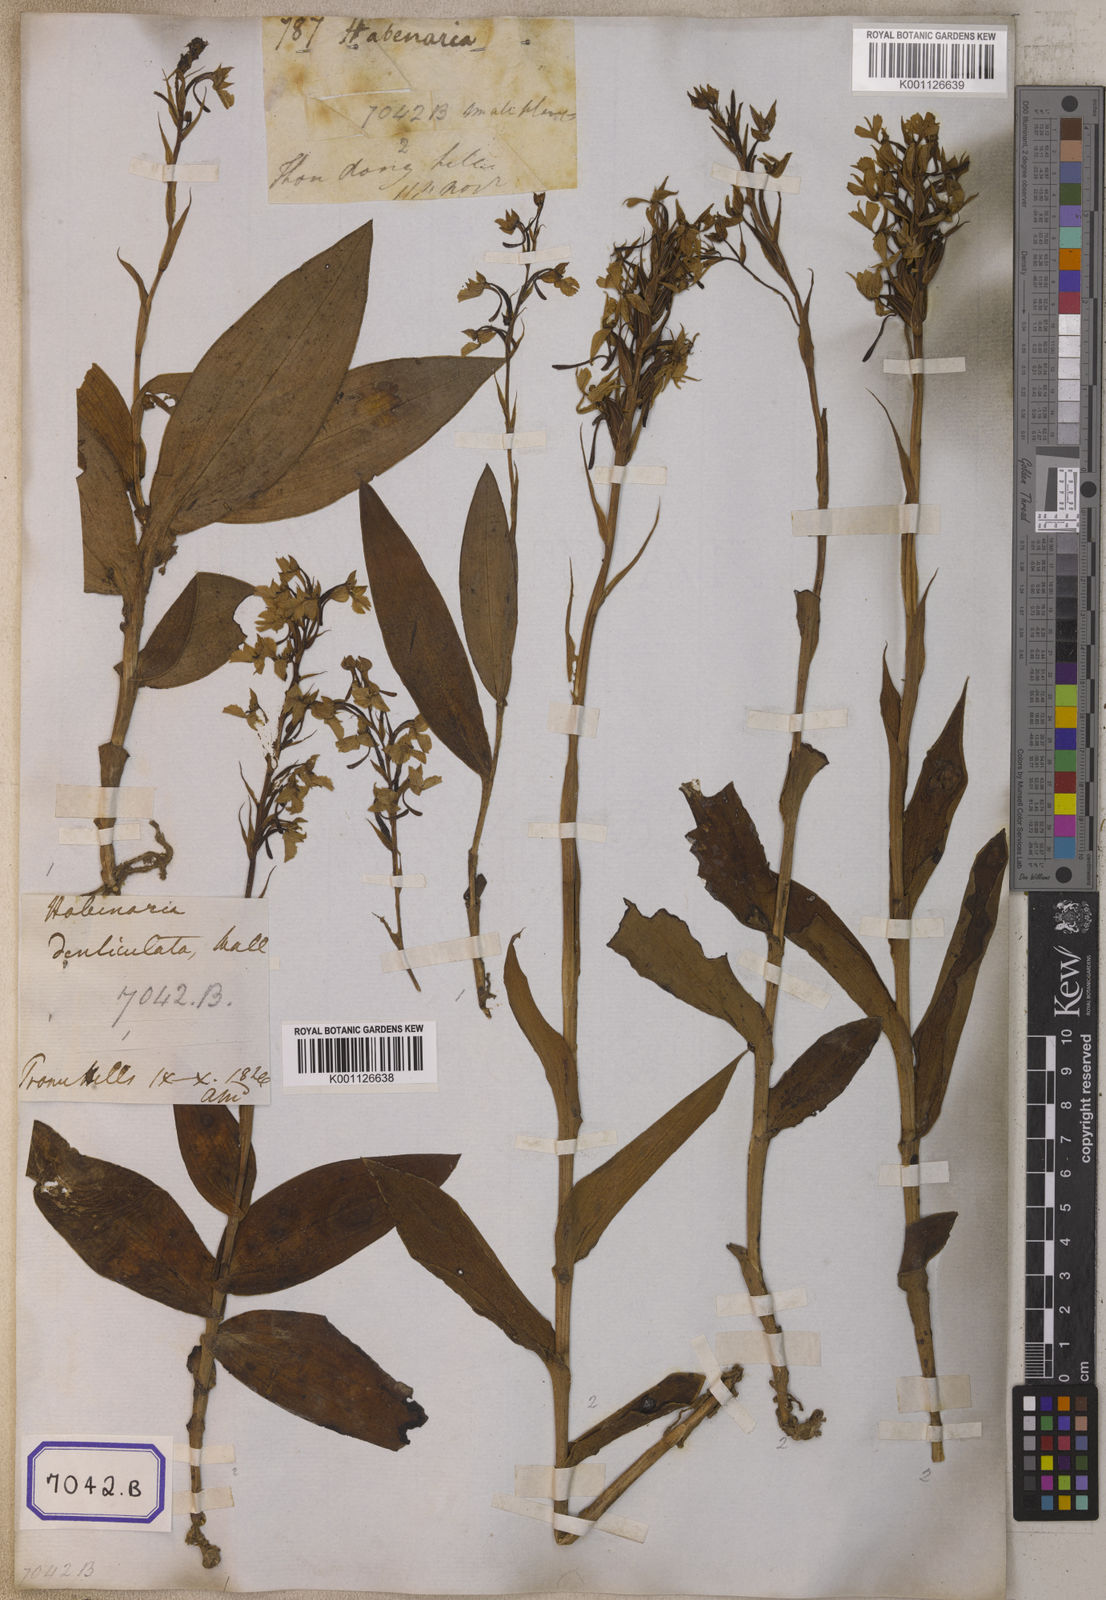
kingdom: Plantae
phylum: Tracheophyta
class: Liliopsida
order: Asparagales
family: Orchidaceae
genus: Platanthera
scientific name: Platanthera
